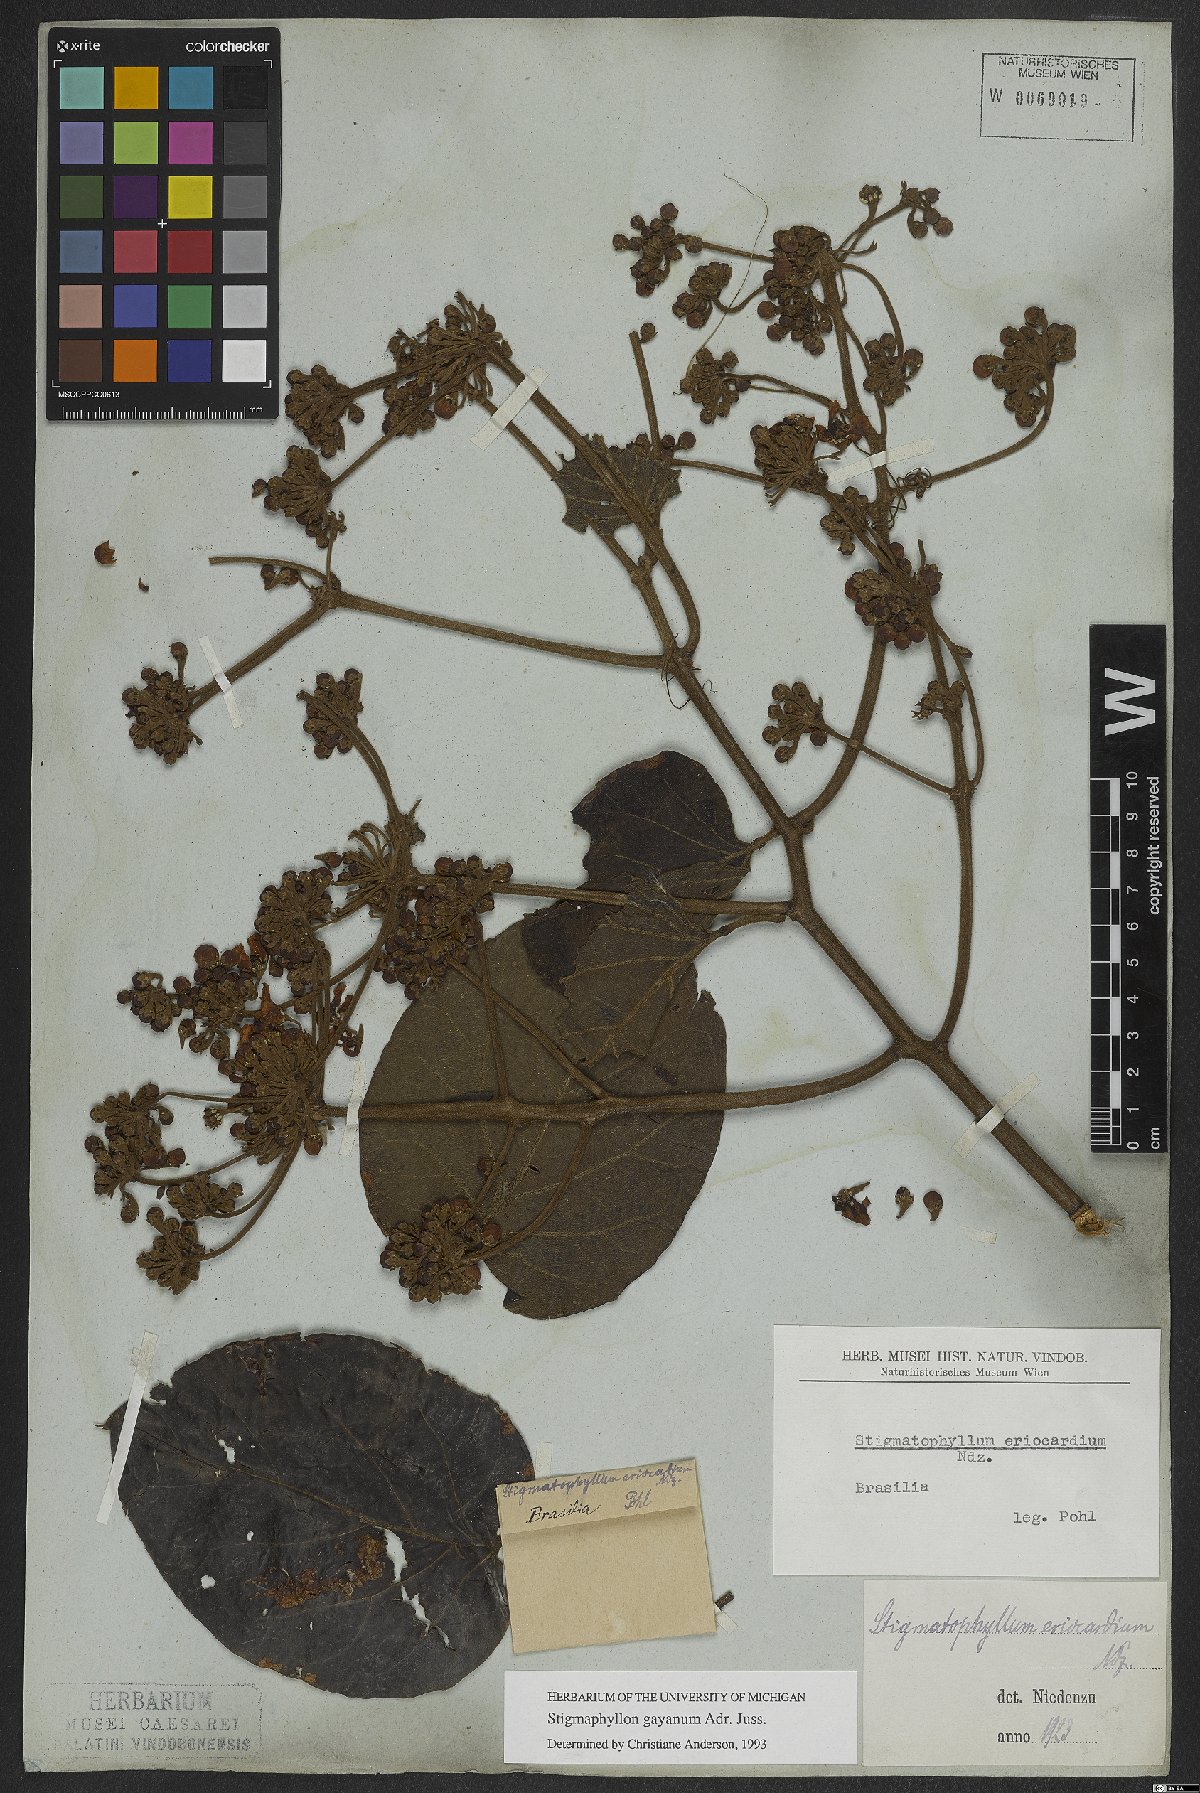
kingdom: Plantae
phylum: Tracheophyta
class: Magnoliopsida
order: Malpighiales
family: Malpighiaceae
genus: Stigmaphyllon
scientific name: Stigmaphyllon gayanum
